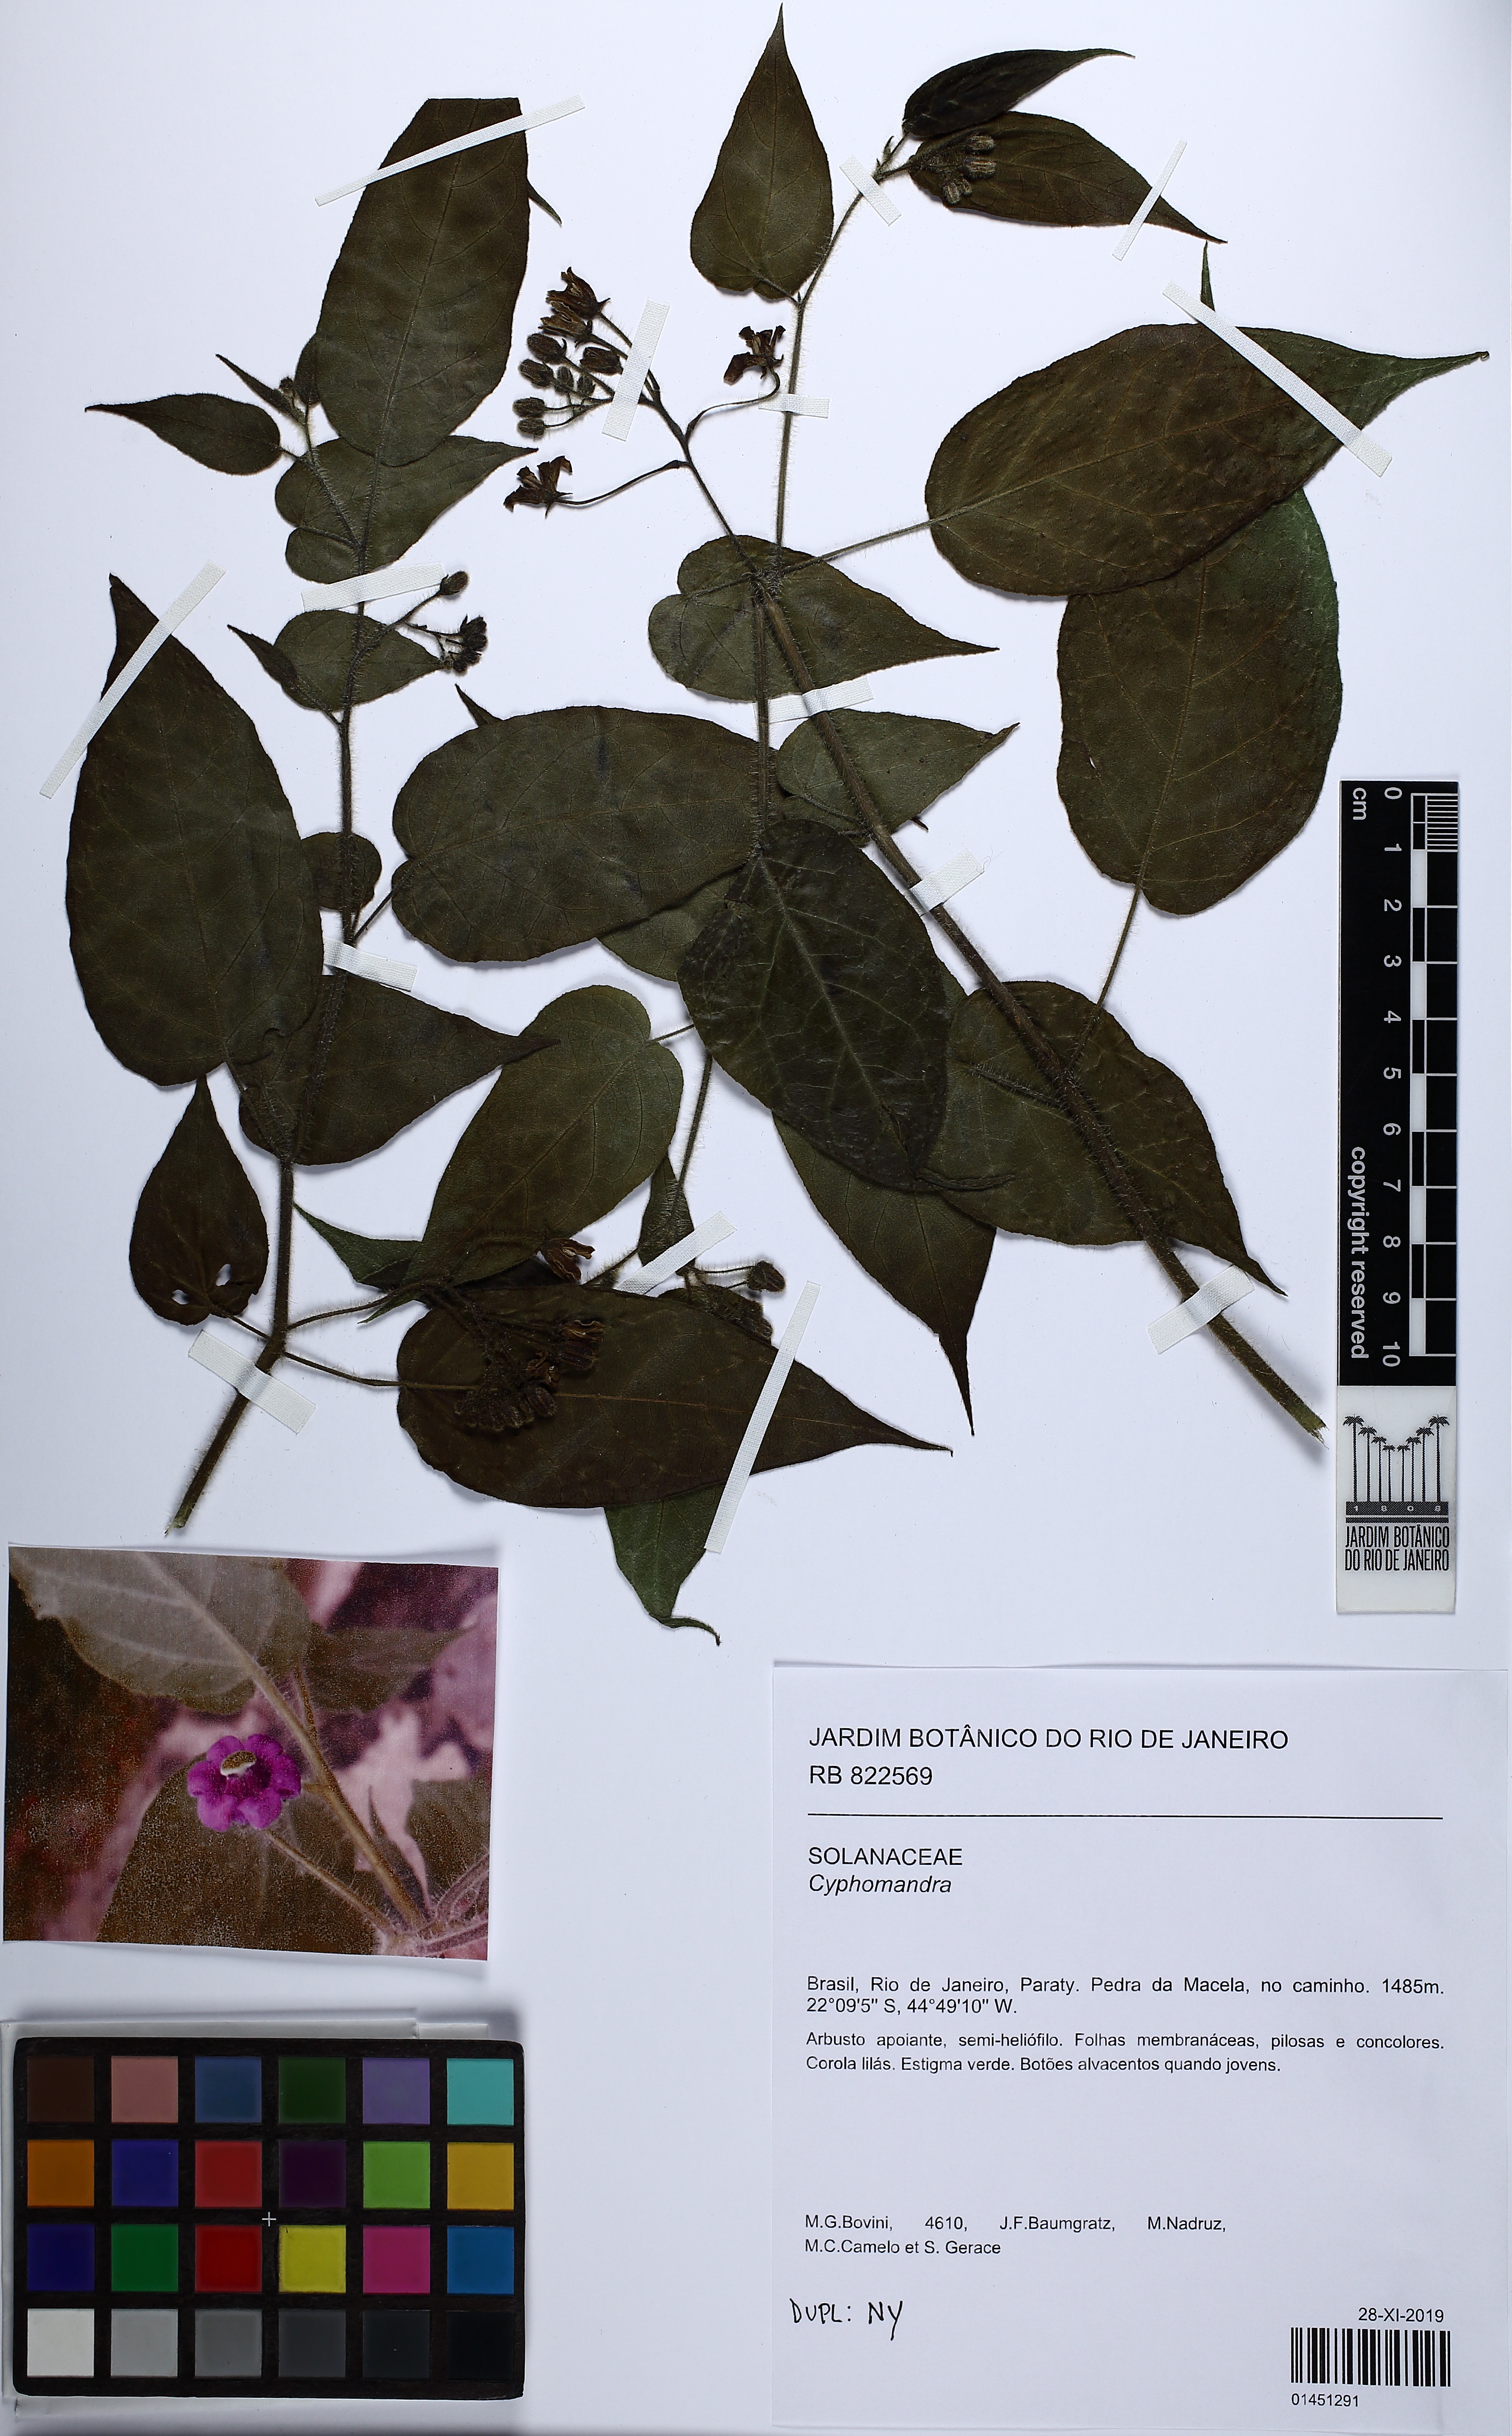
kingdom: Plantae
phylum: Tracheophyta
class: Magnoliopsida
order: Solanales
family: Solanaceae
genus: Solanum
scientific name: Solanum
